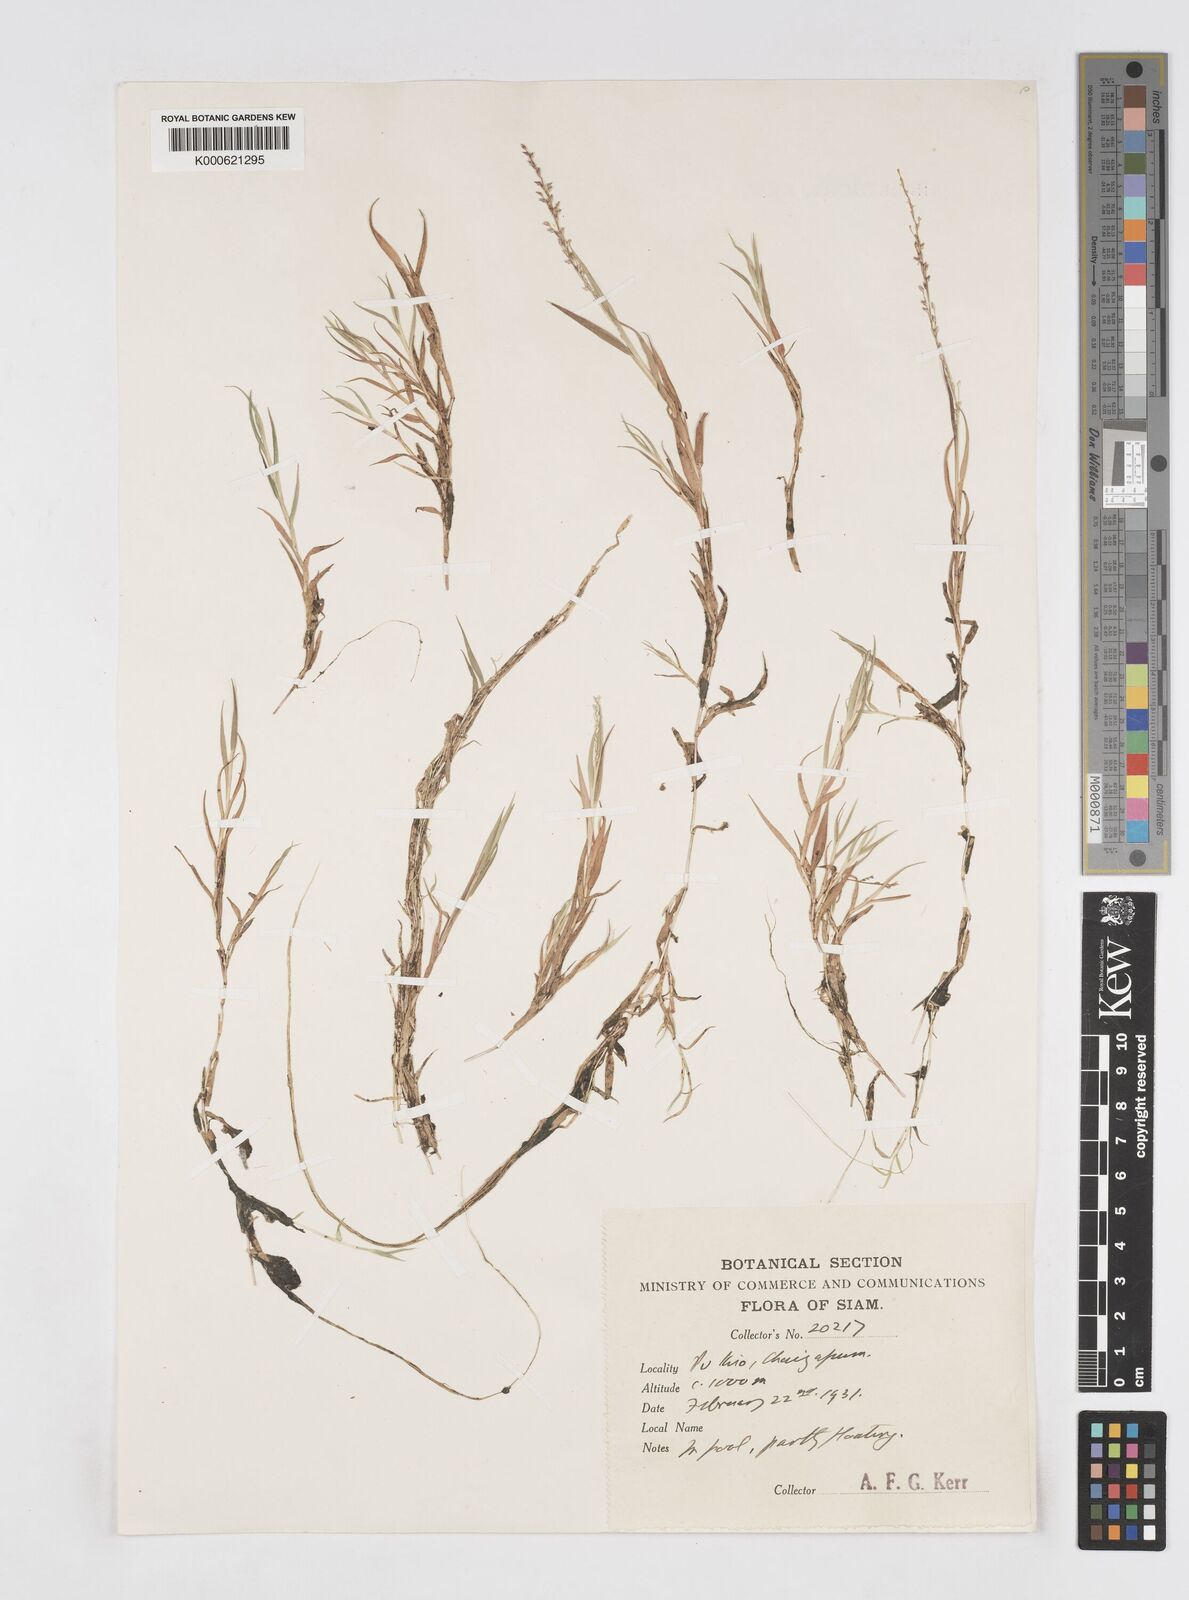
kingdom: Plantae
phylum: Tracheophyta
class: Liliopsida
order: Poales
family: Poaceae
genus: Coelachne
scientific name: Coelachne simpliciuscula
